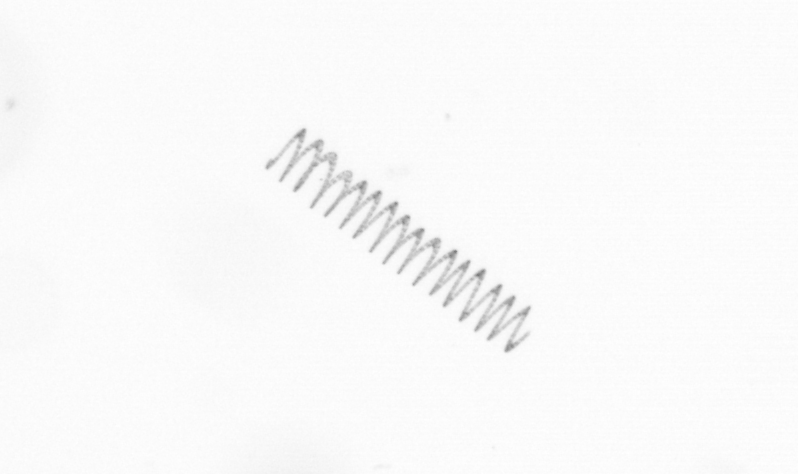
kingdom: Chromista
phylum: Ochrophyta
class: Bacillariophyceae
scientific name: Bacillariophyceae
